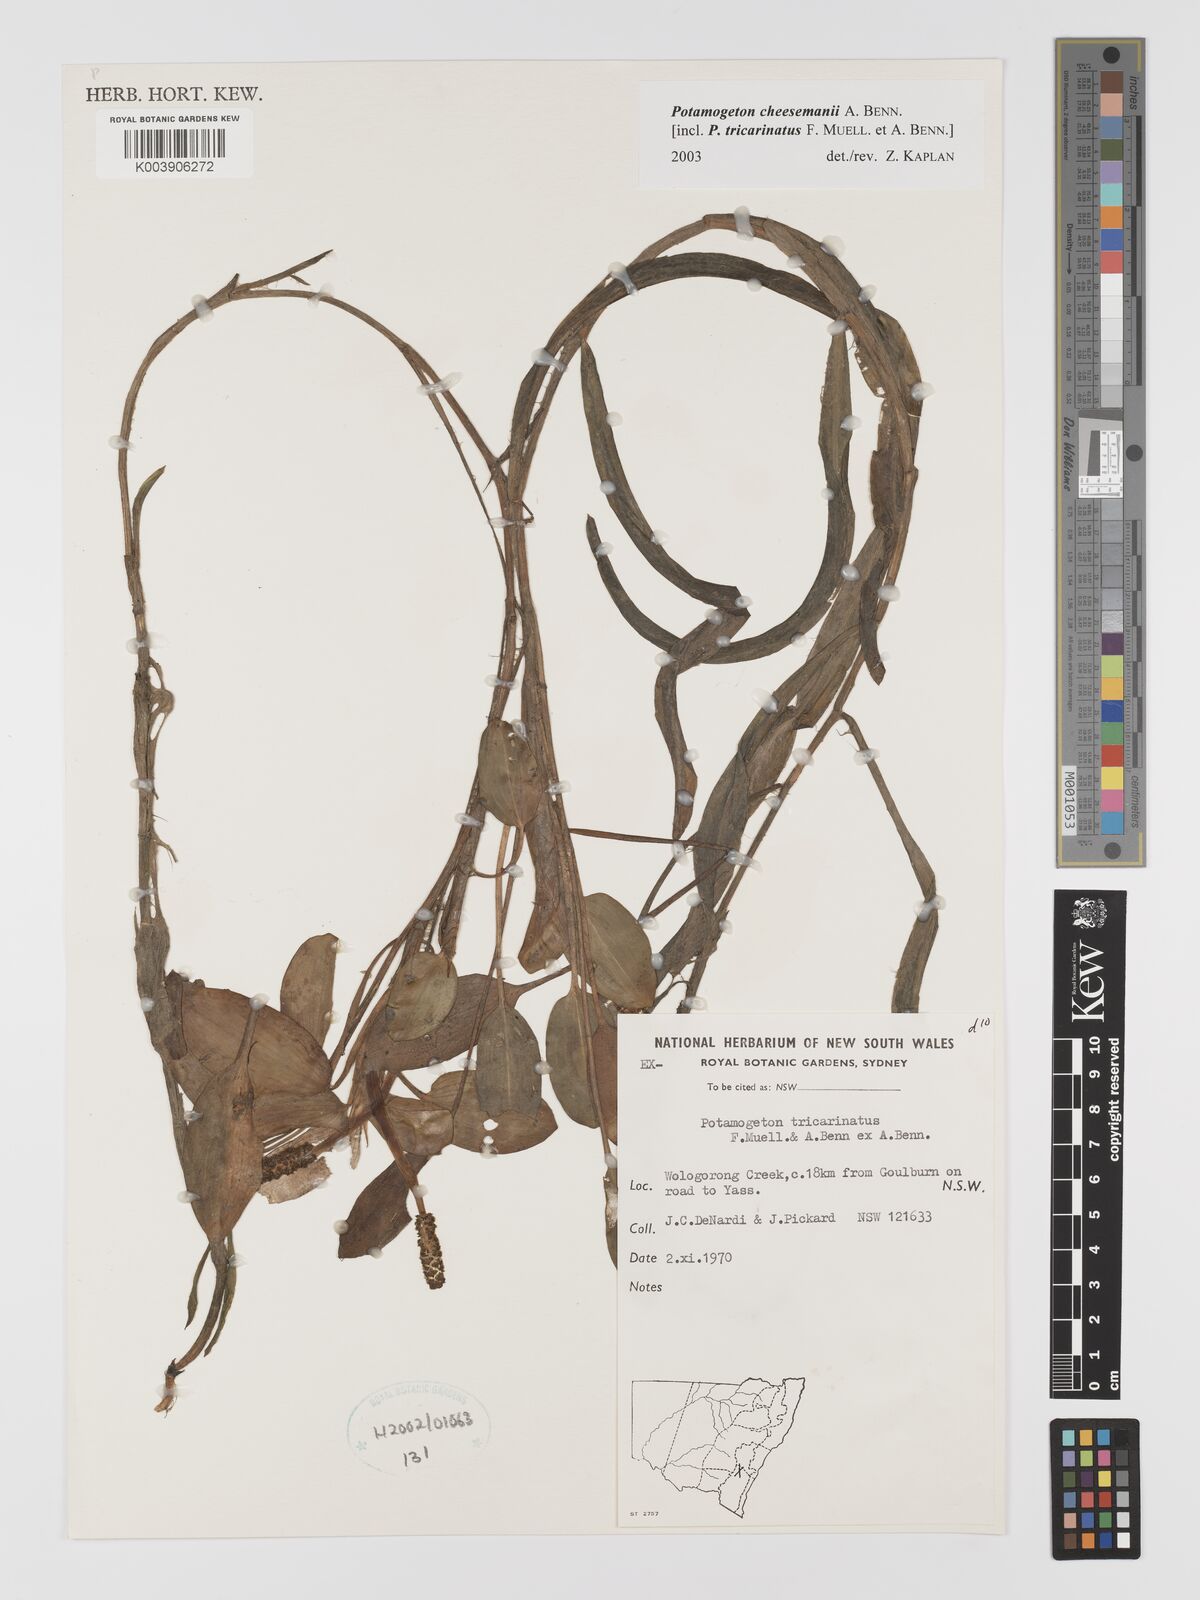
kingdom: Plantae
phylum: Tracheophyta
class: Liliopsida
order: Alismatales
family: Potamogetonaceae
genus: Potamogeton
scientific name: Potamogeton cheesemanii
